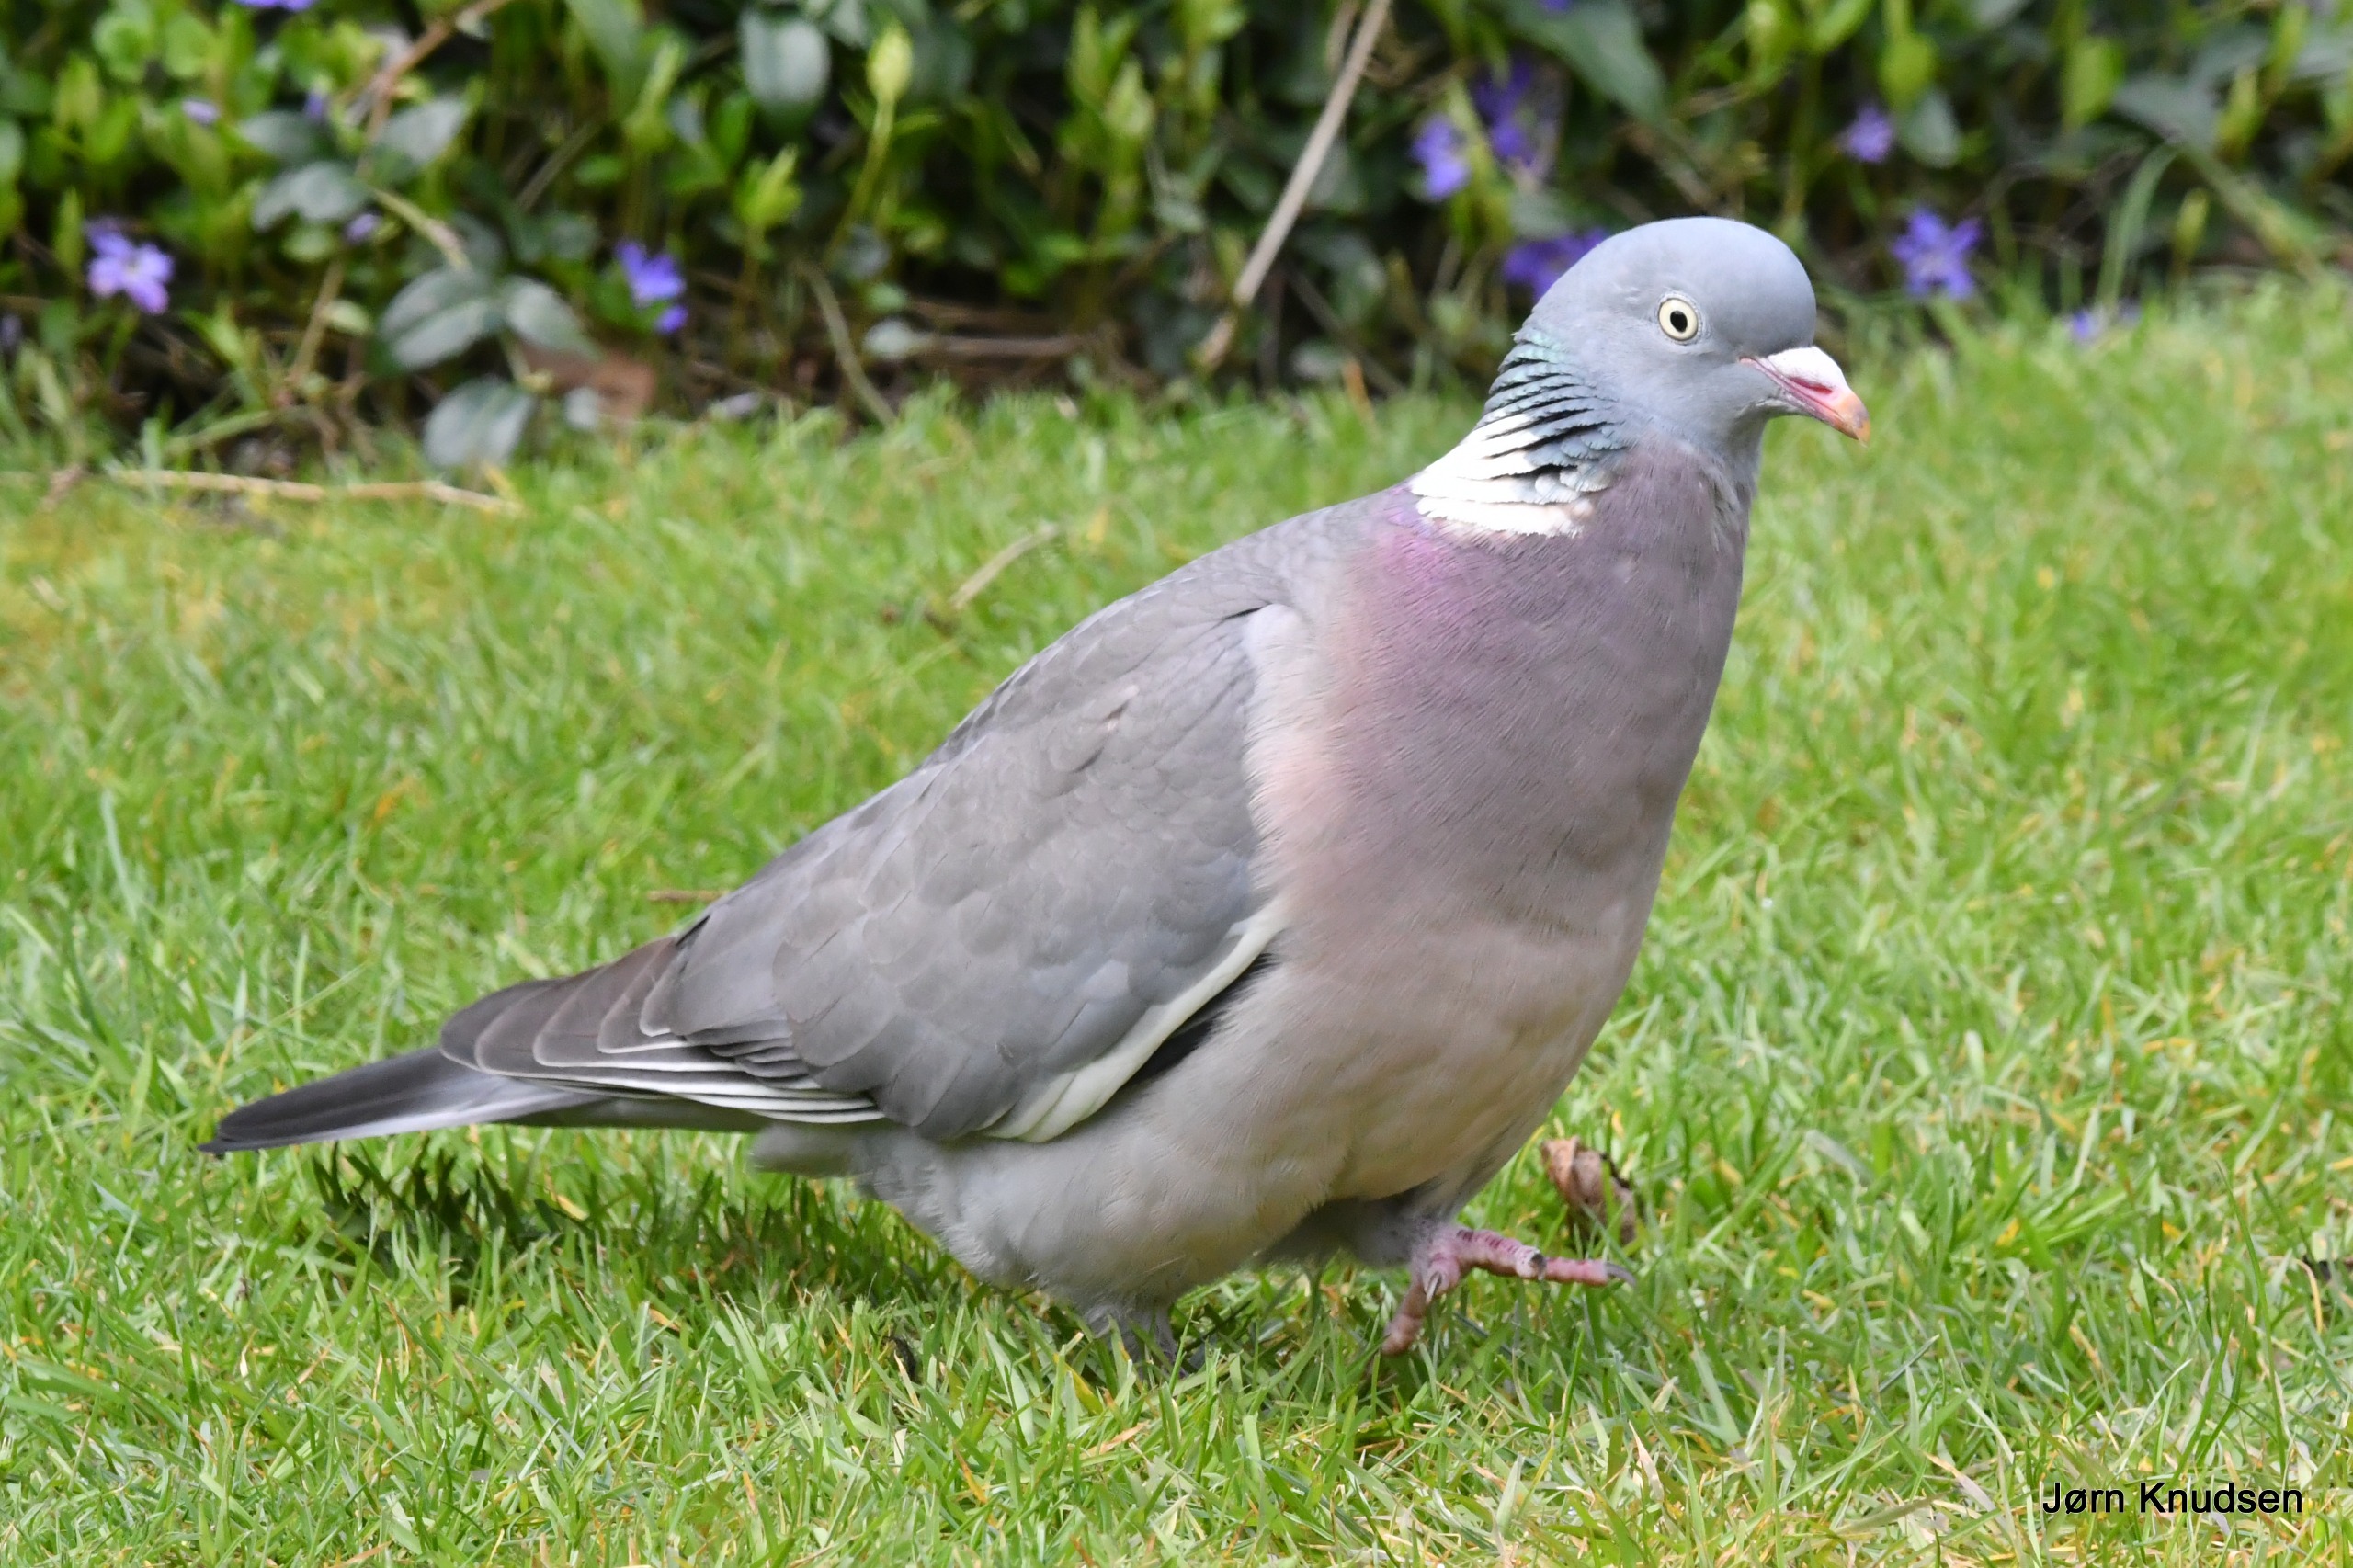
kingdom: Animalia
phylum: Chordata
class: Aves
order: Columbiformes
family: Columbidae
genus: Columba
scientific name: Columba palumbus
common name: Ringdue
